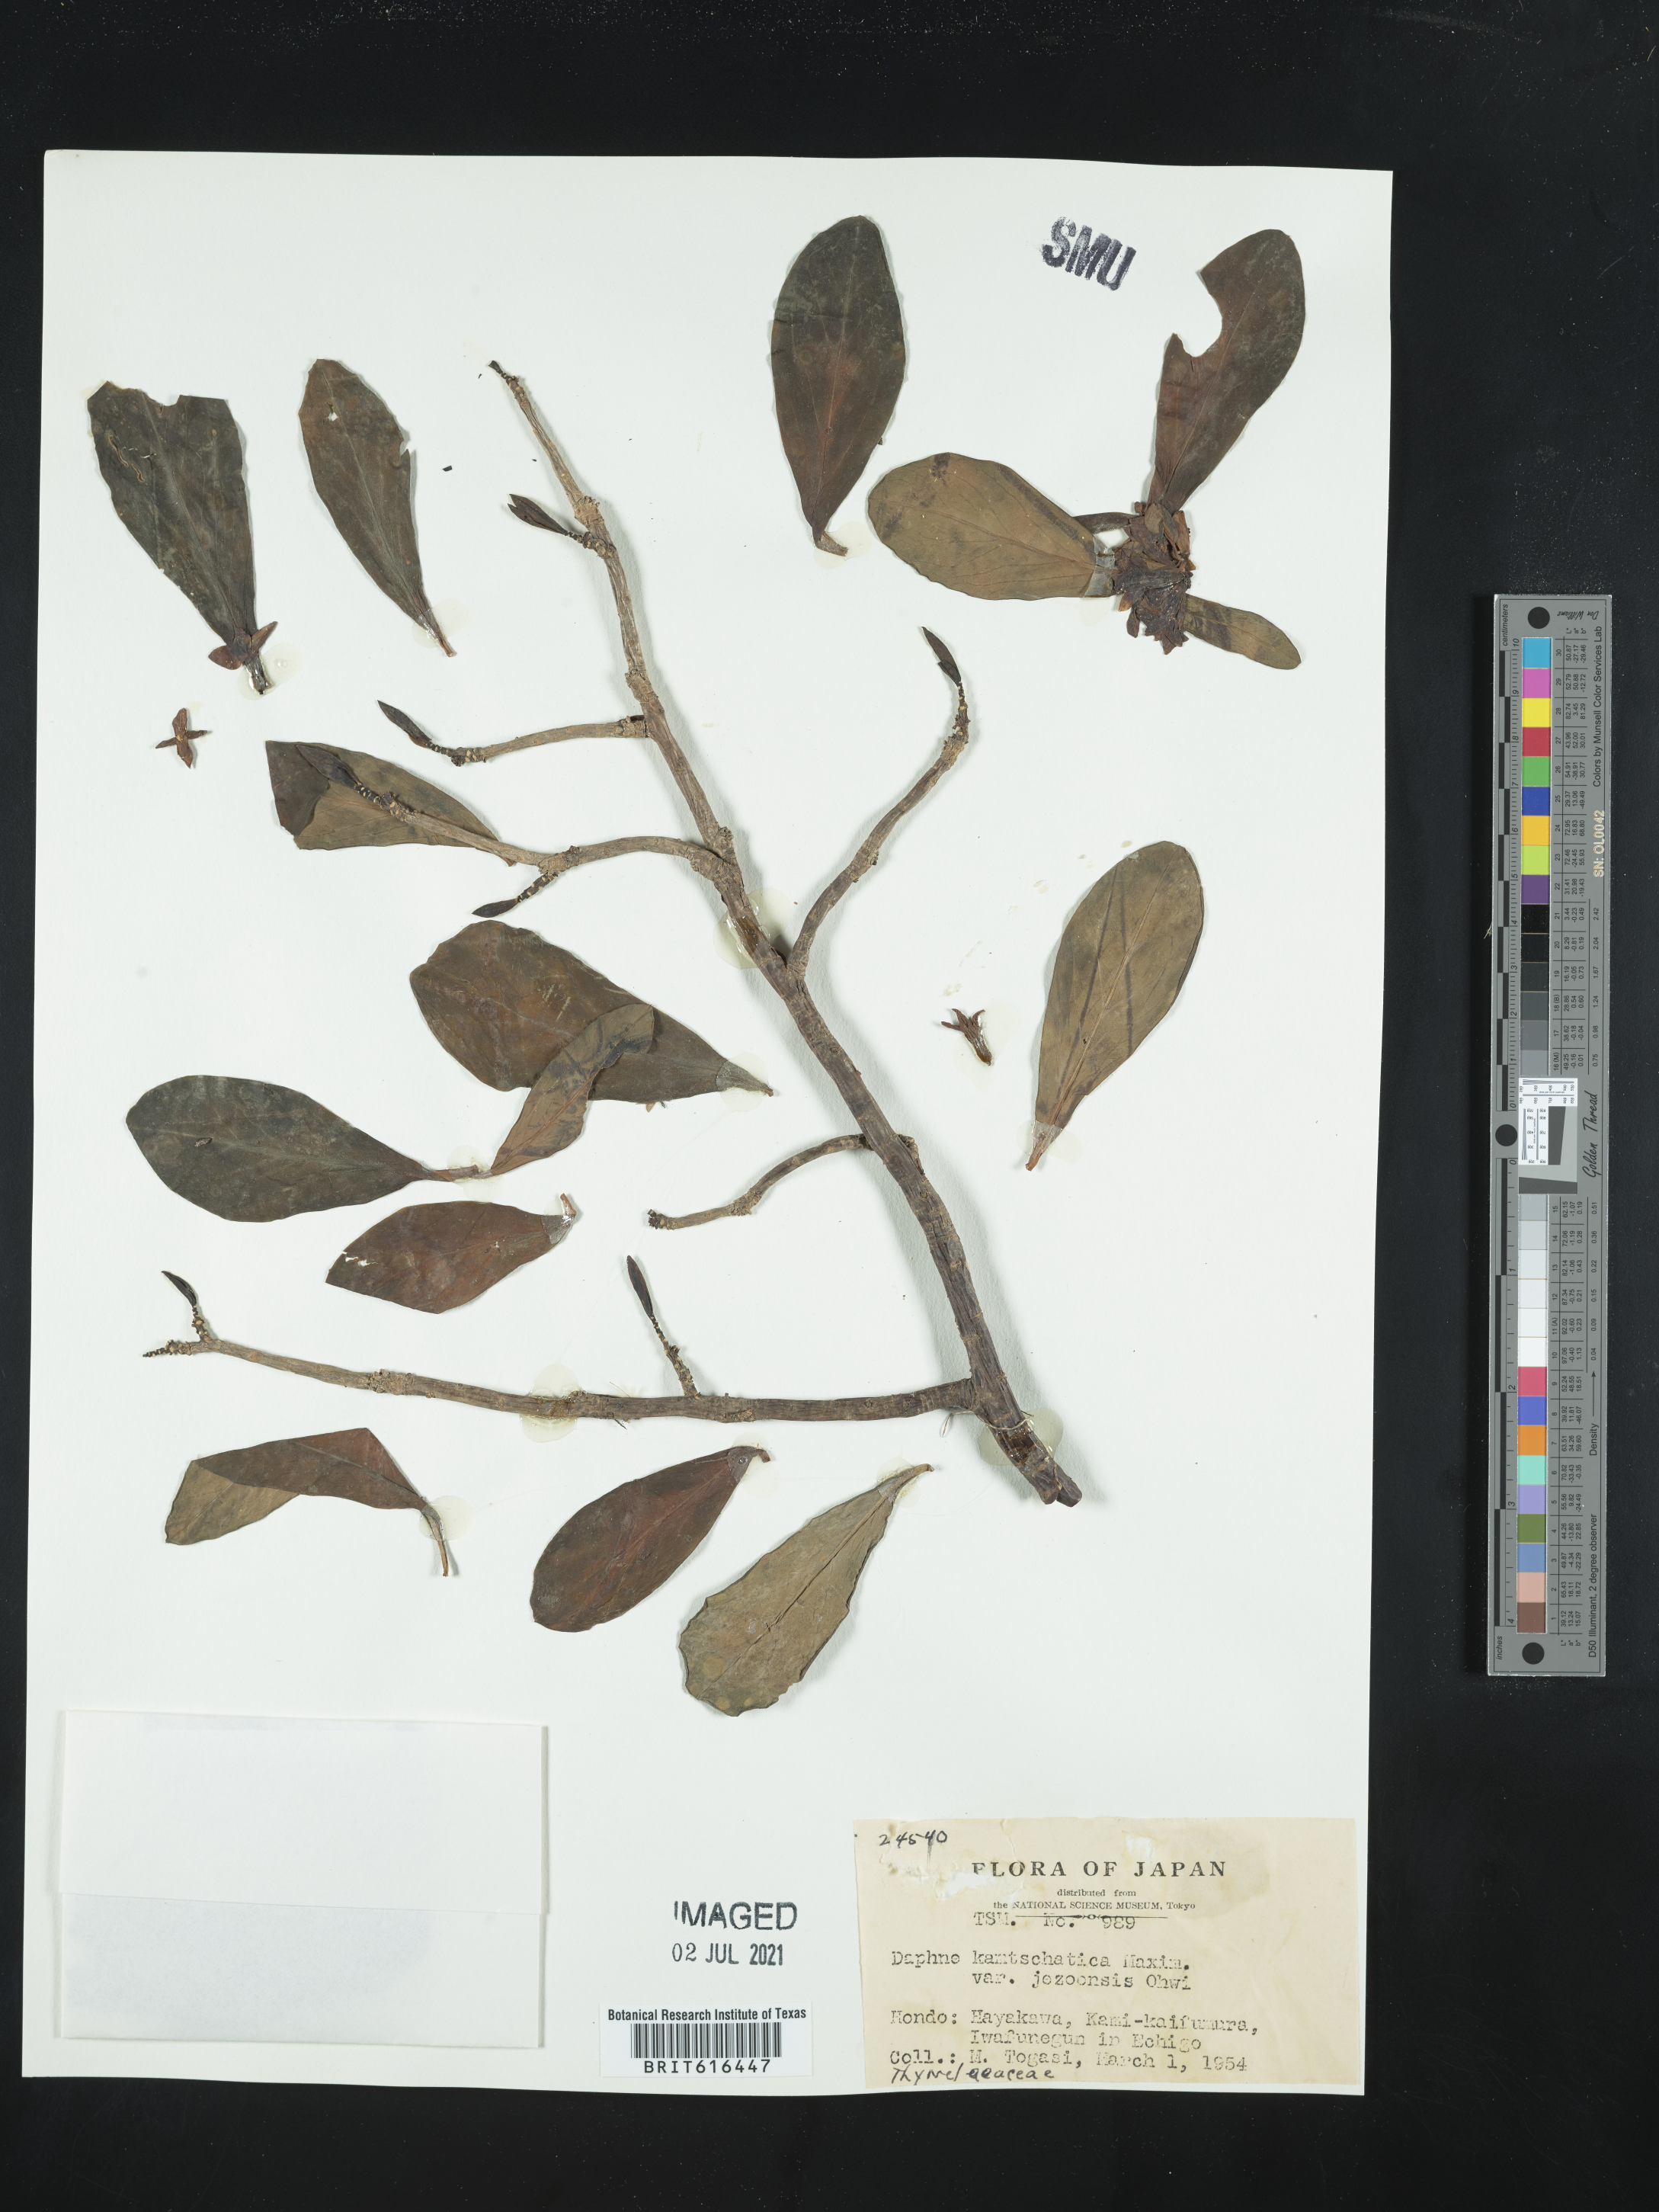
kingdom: Plantae
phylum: Tracheophyta
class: Magnoliopsida
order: Malvales
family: Thymelaeaceae
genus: Daphne
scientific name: Daphne jezoensis
